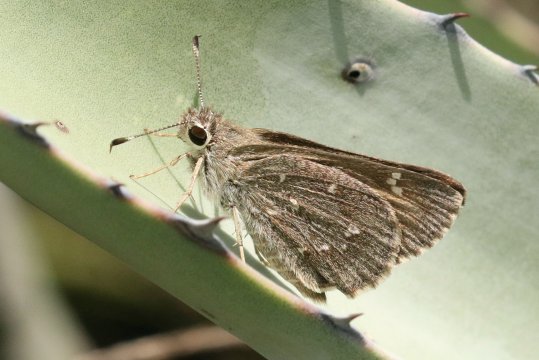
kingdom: Animalia
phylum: Arthropoda
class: Insecta
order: Lepidoptera
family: Hesperiidae
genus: Atrytonopsis
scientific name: Atrytonopsis ovinia
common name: Sheep Skipper
